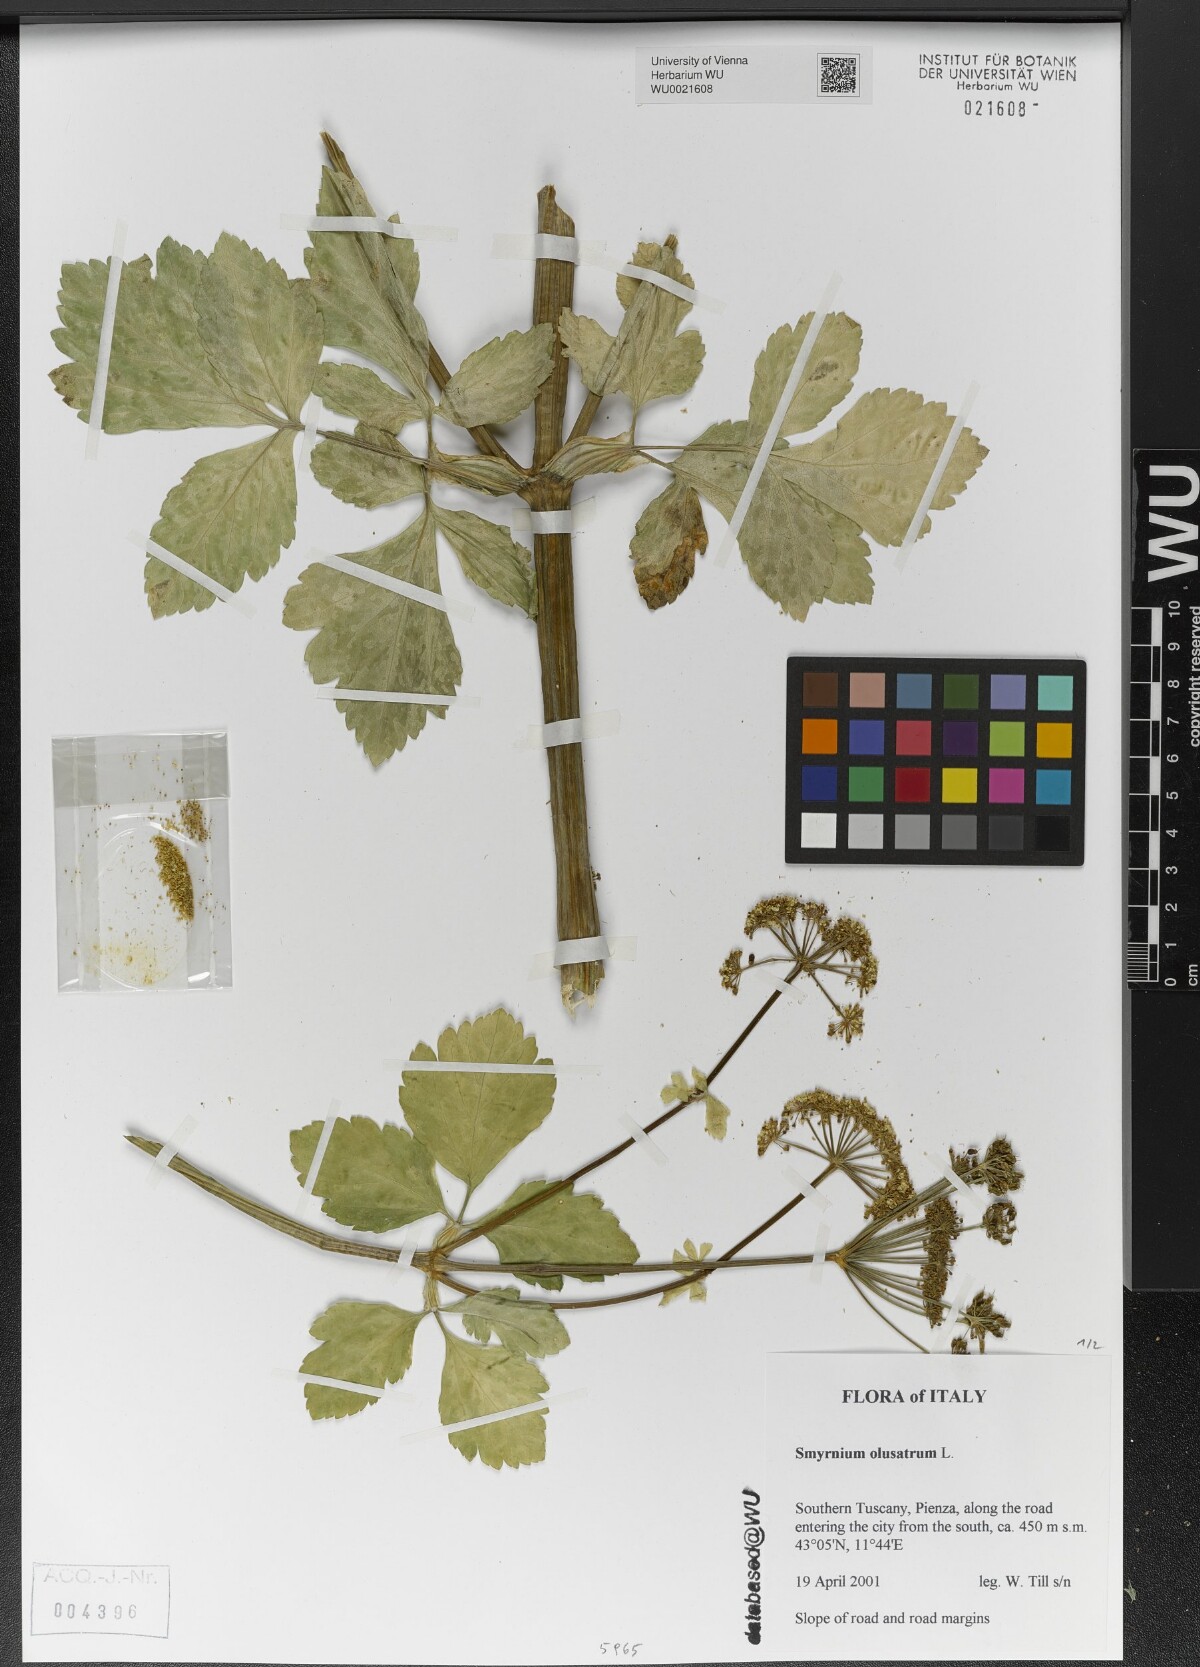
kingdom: Plantae
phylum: Tracheophyta
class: Magnoliopsida
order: Apiales
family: Apiaceae
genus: Smyrnium
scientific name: Smyrnium olusatrum
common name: Alexanders
